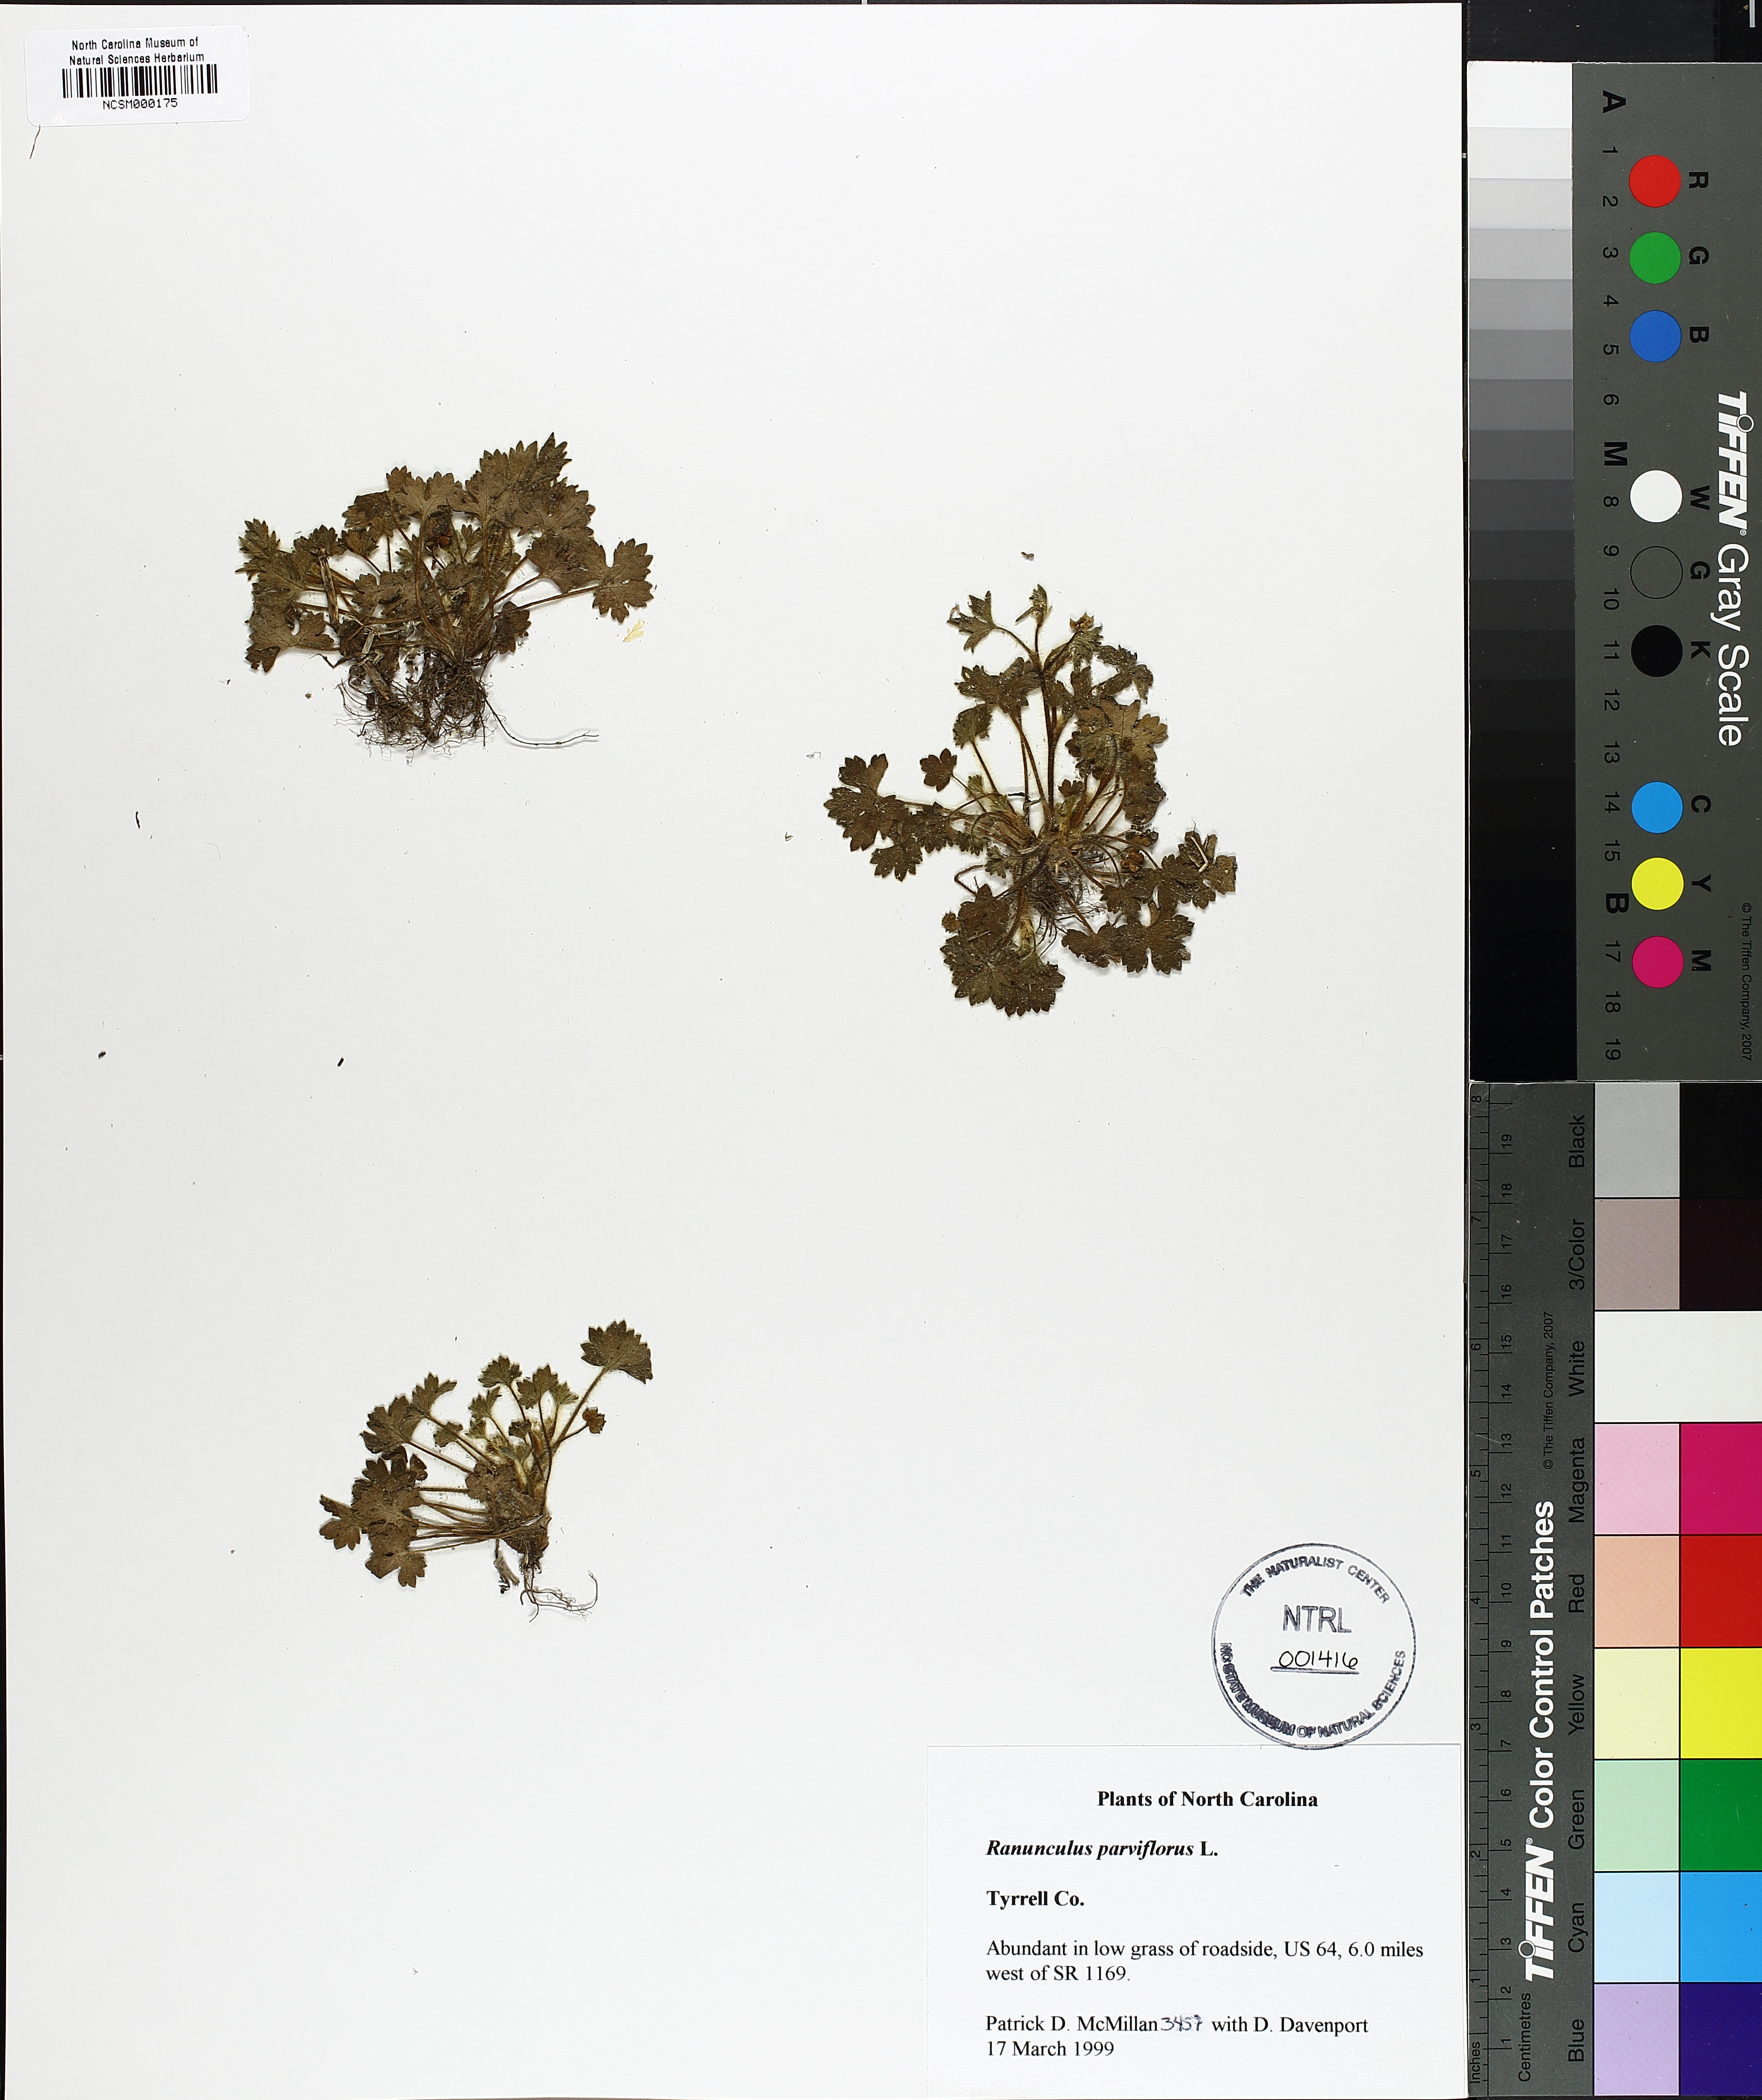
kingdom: Plantae
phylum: Tracheophyta
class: Magnoliopsida
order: Ranunculales
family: Ranunculaceae
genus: Ranunculus
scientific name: Ranunculus parviflorus
